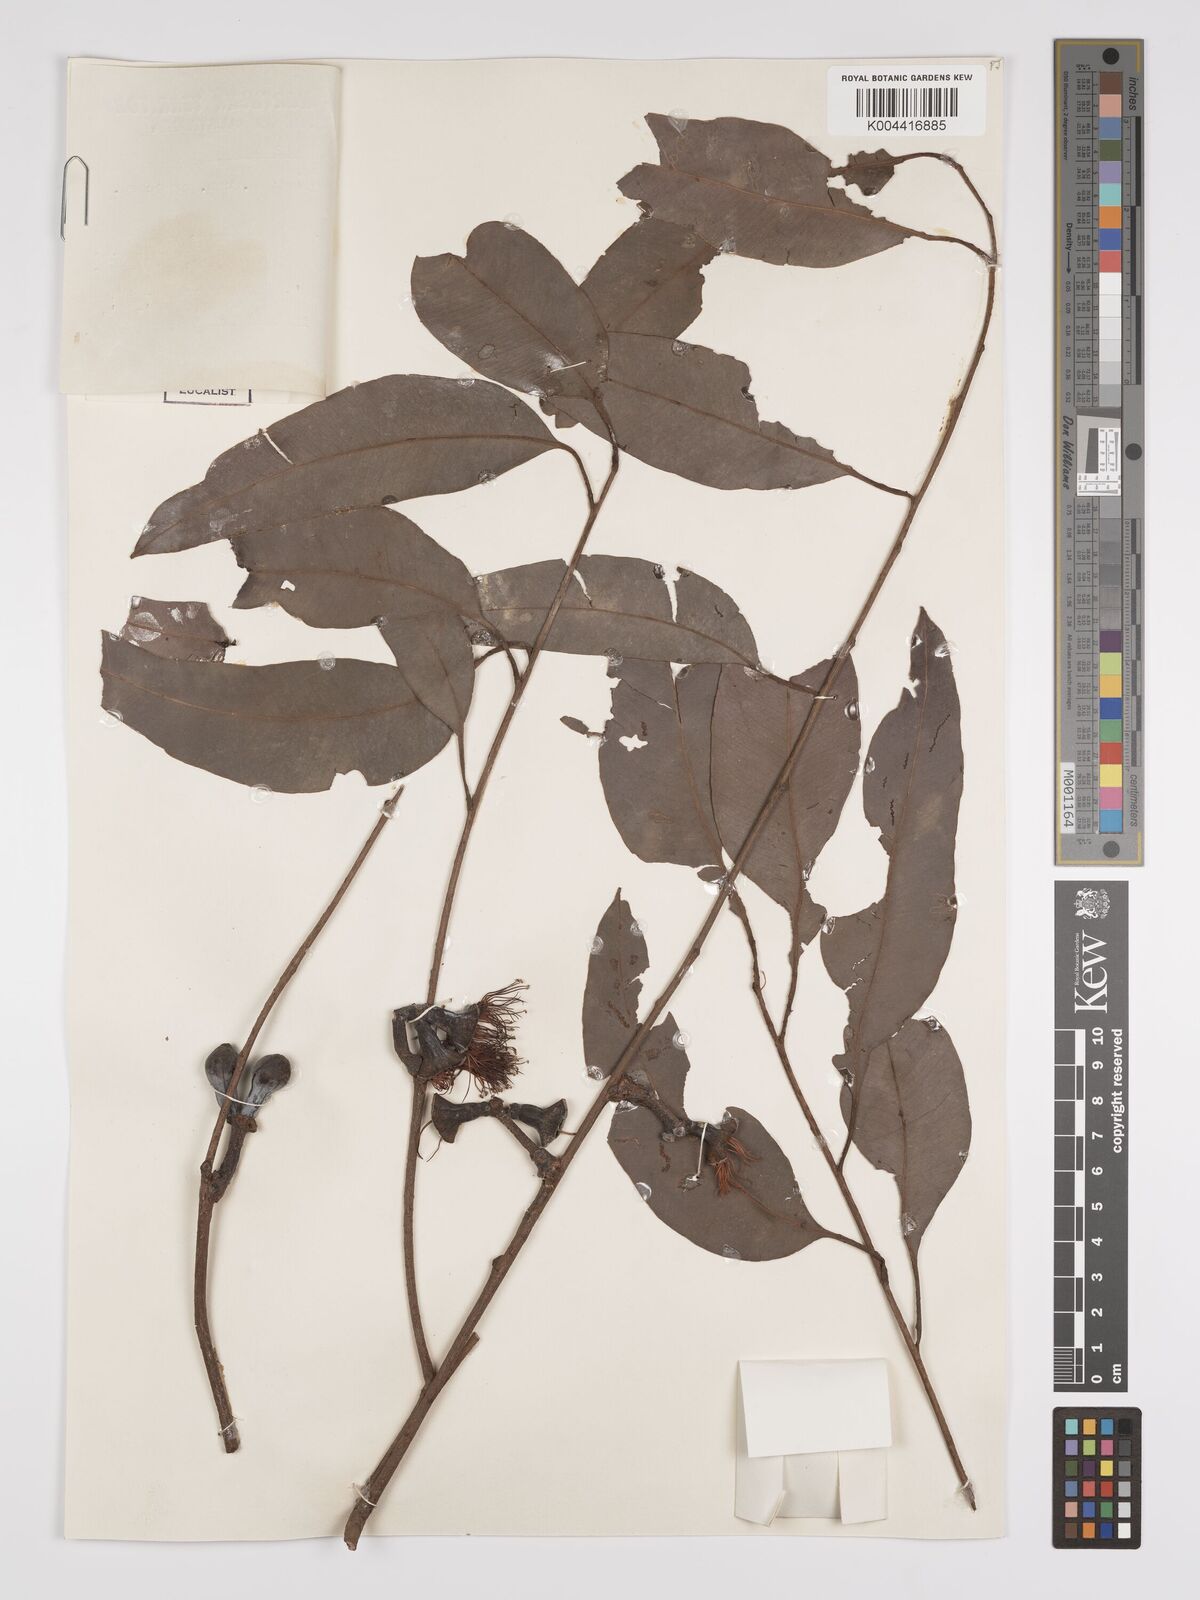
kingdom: Plantae
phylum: Tracheophyta
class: Magnoliopsida
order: Myrtales
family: Myrtaceae
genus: Eucalyptus
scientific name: Eucalyptus miniata
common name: Darwin-woollybutt
